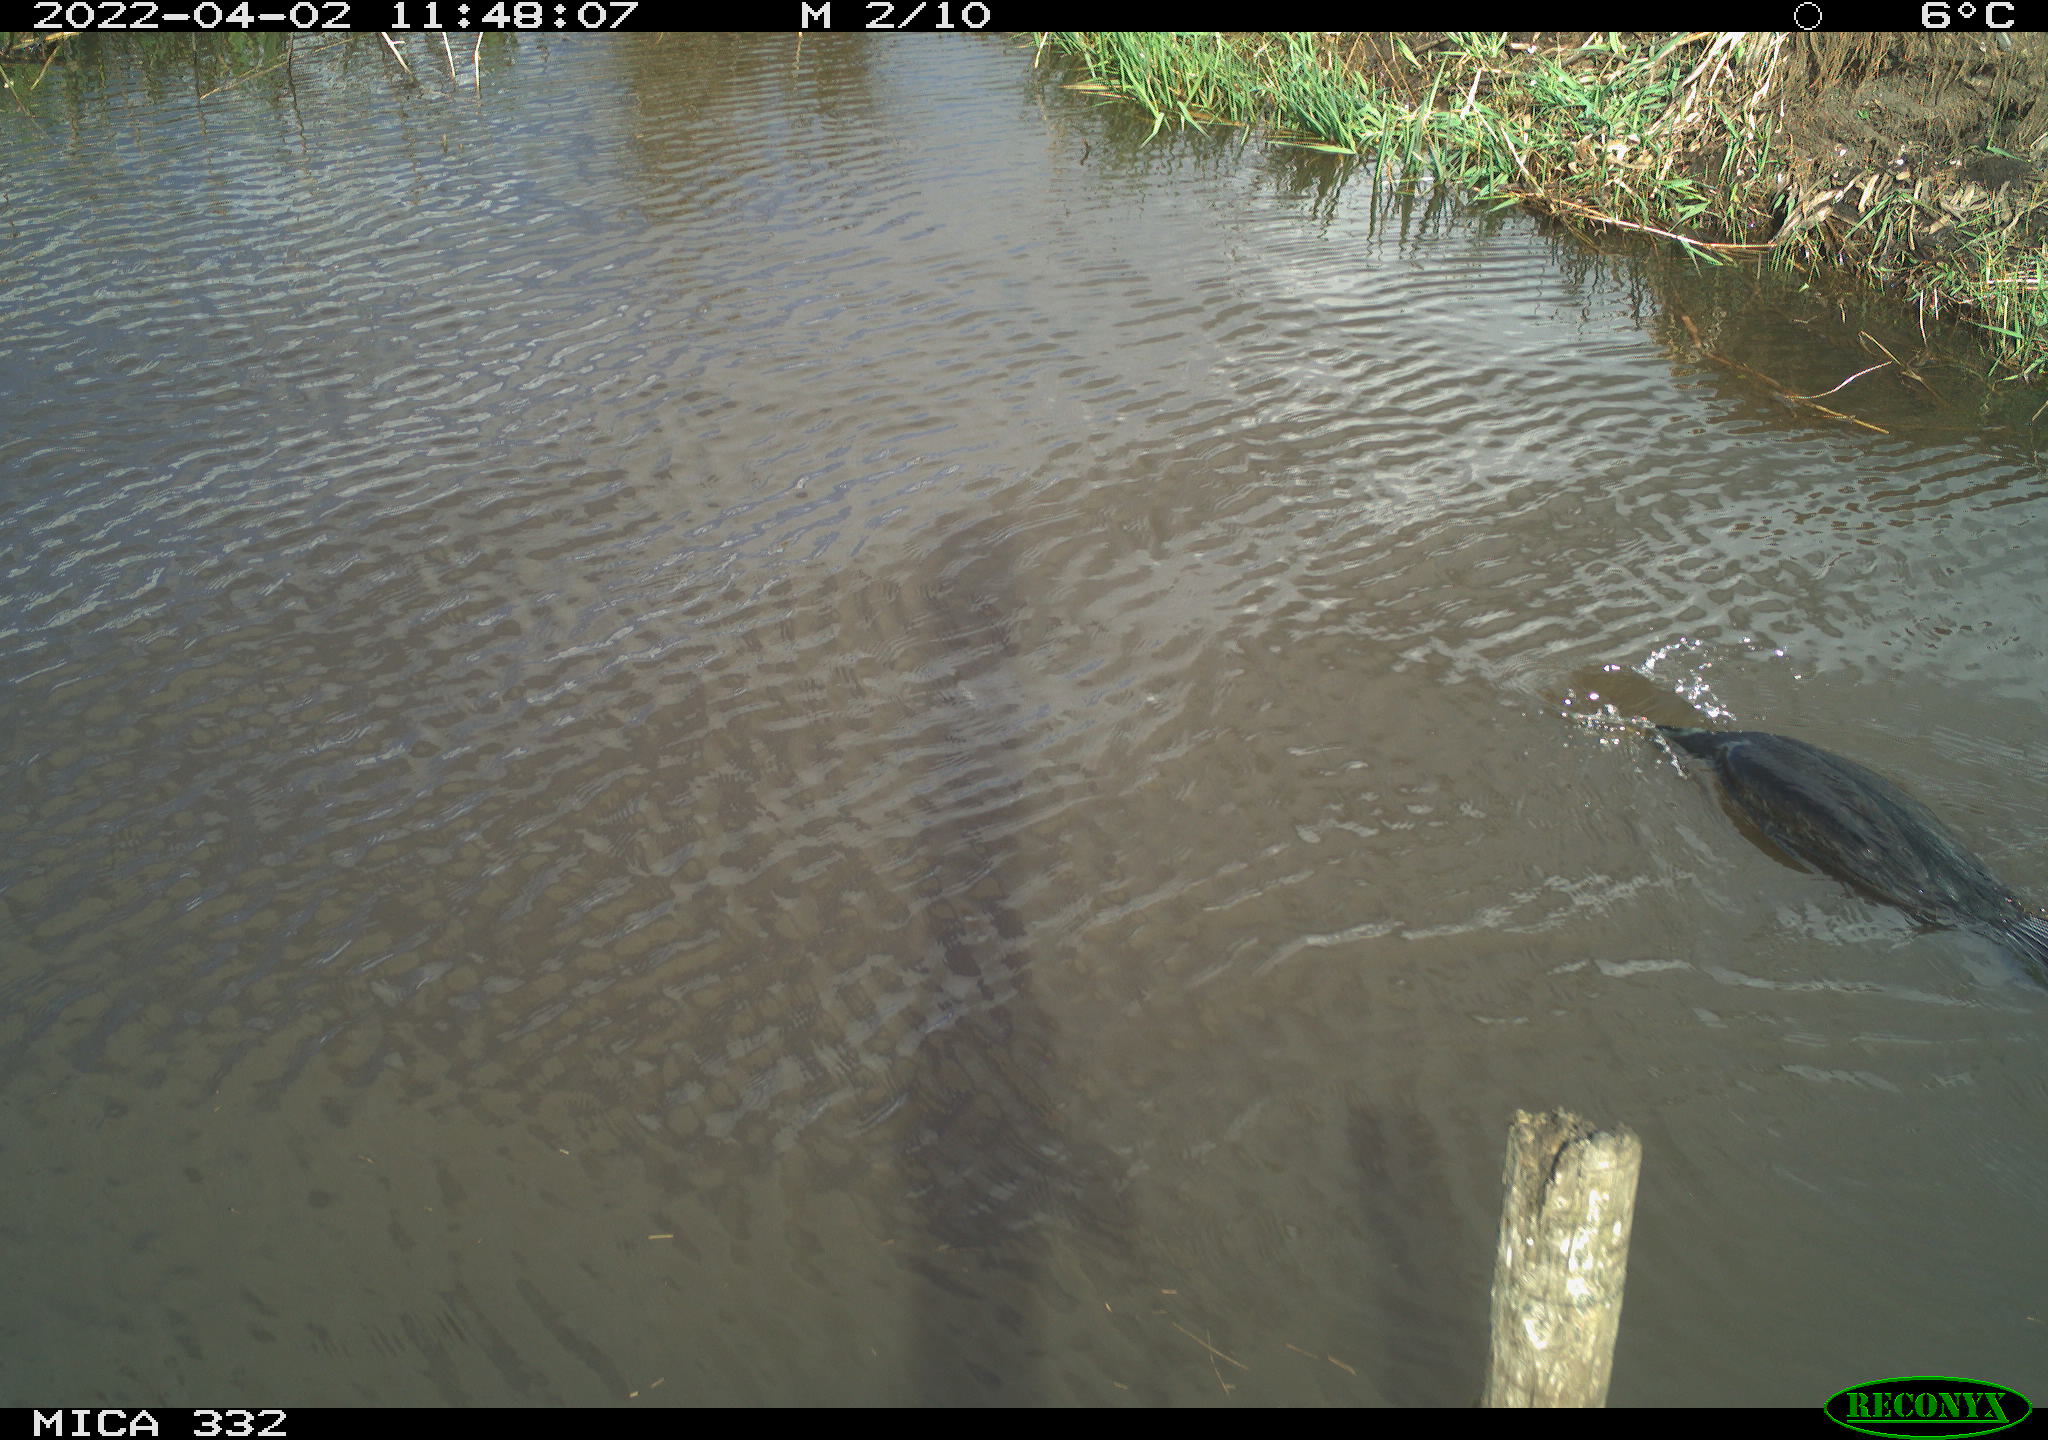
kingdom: Animalia
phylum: Chordata
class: Aves
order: Suliformes
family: Phalacrocoracidae
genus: Phalacrocorax
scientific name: Phalacrocorax carbo
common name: Great cormorant
